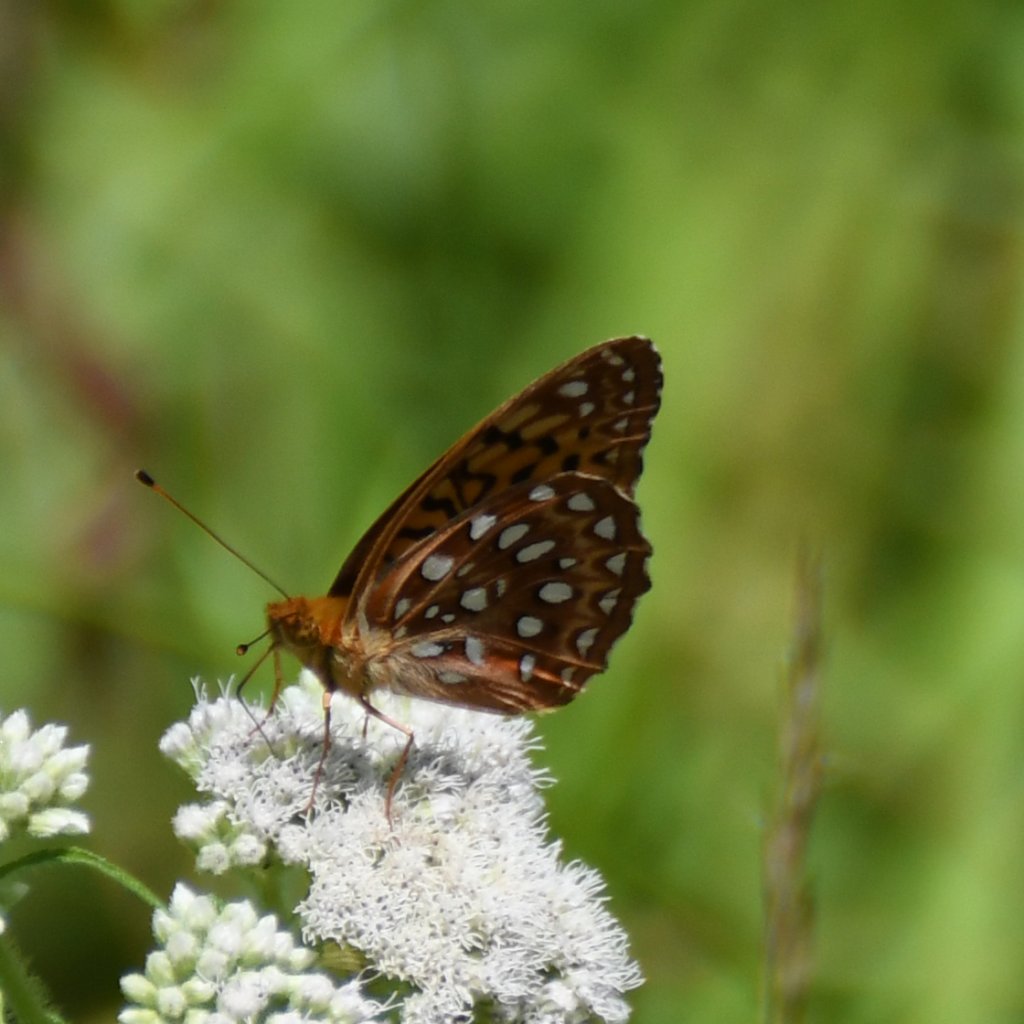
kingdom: Animalia
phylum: Arthropoda
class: Insecta
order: Lepidoptera
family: Nymphalidae
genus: Speyeria
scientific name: Speyeria aphrodite
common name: Aphrodite Fritillary
